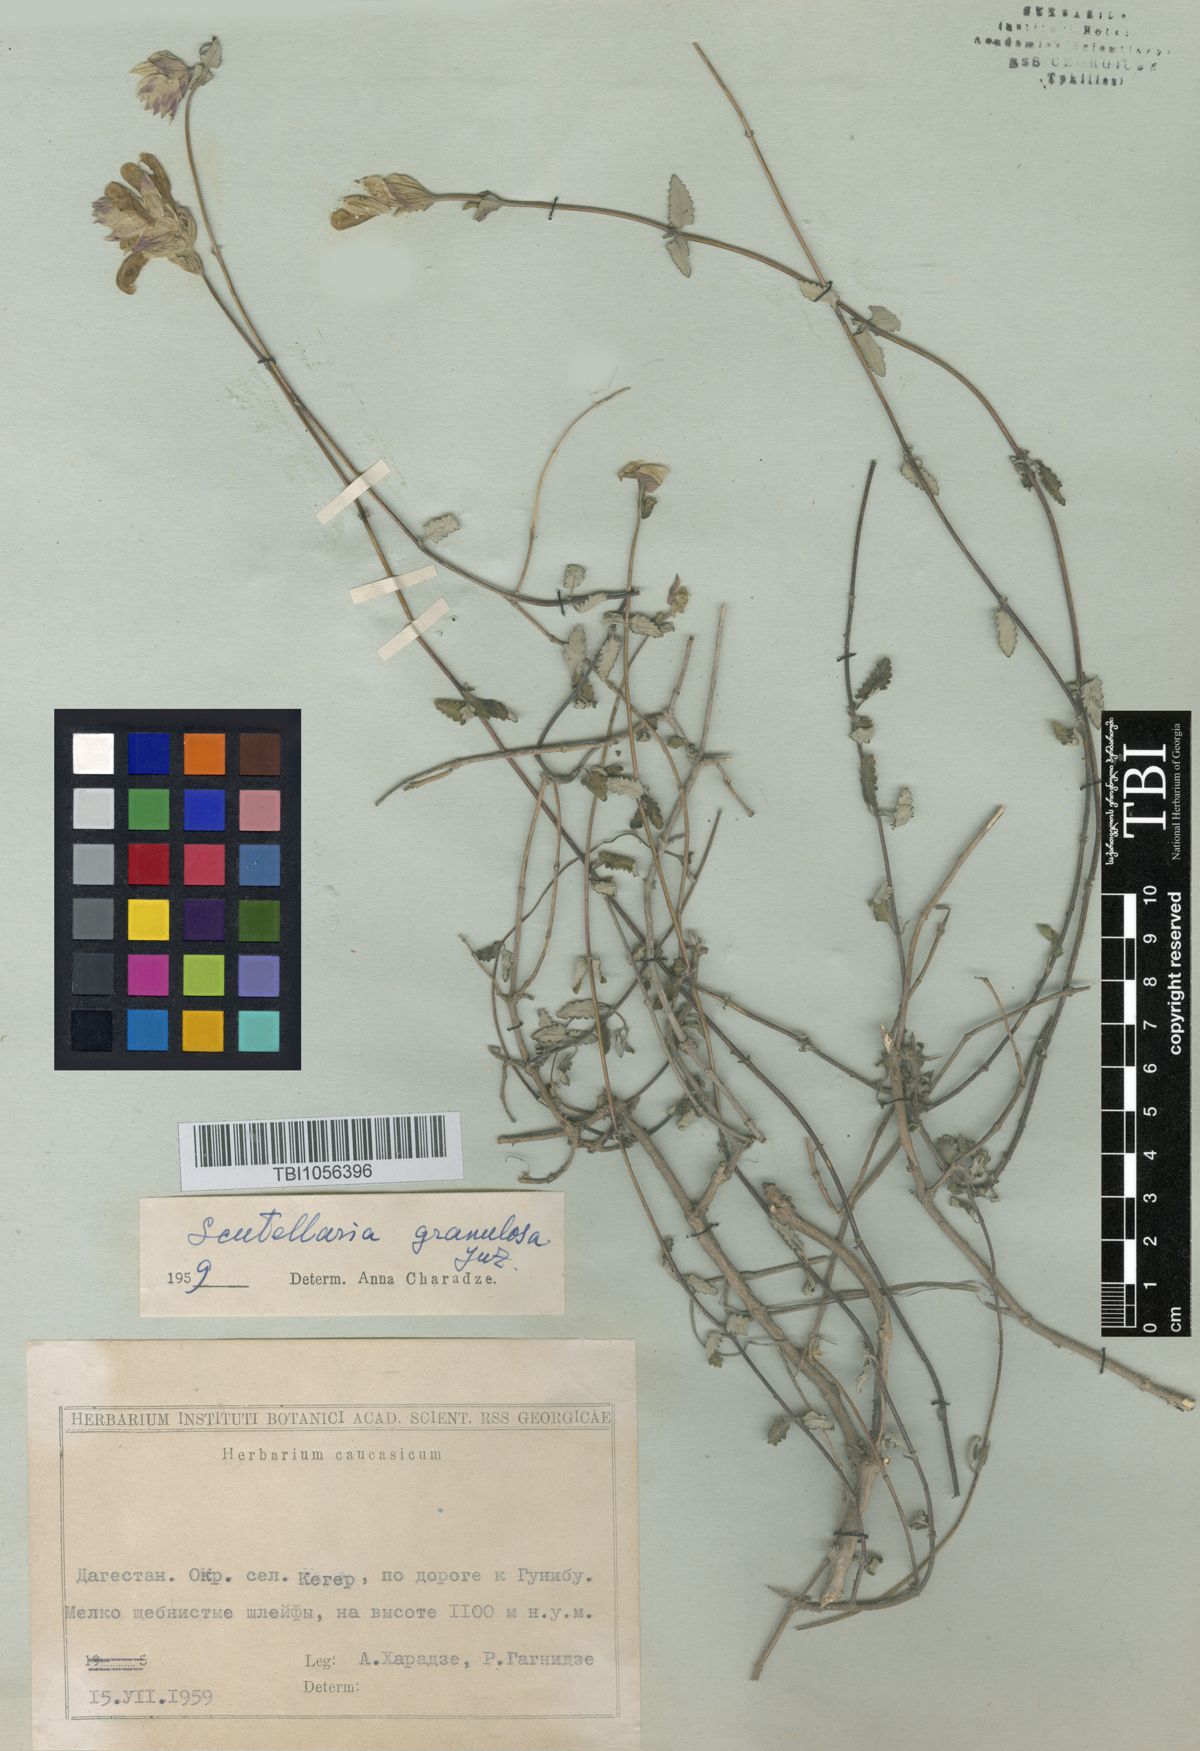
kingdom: Plantae
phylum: Tracheophyta
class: Magnoliopsida
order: Lamiales
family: Lamiaceae
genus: Scutellaria
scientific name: Scutellaria granulosa
